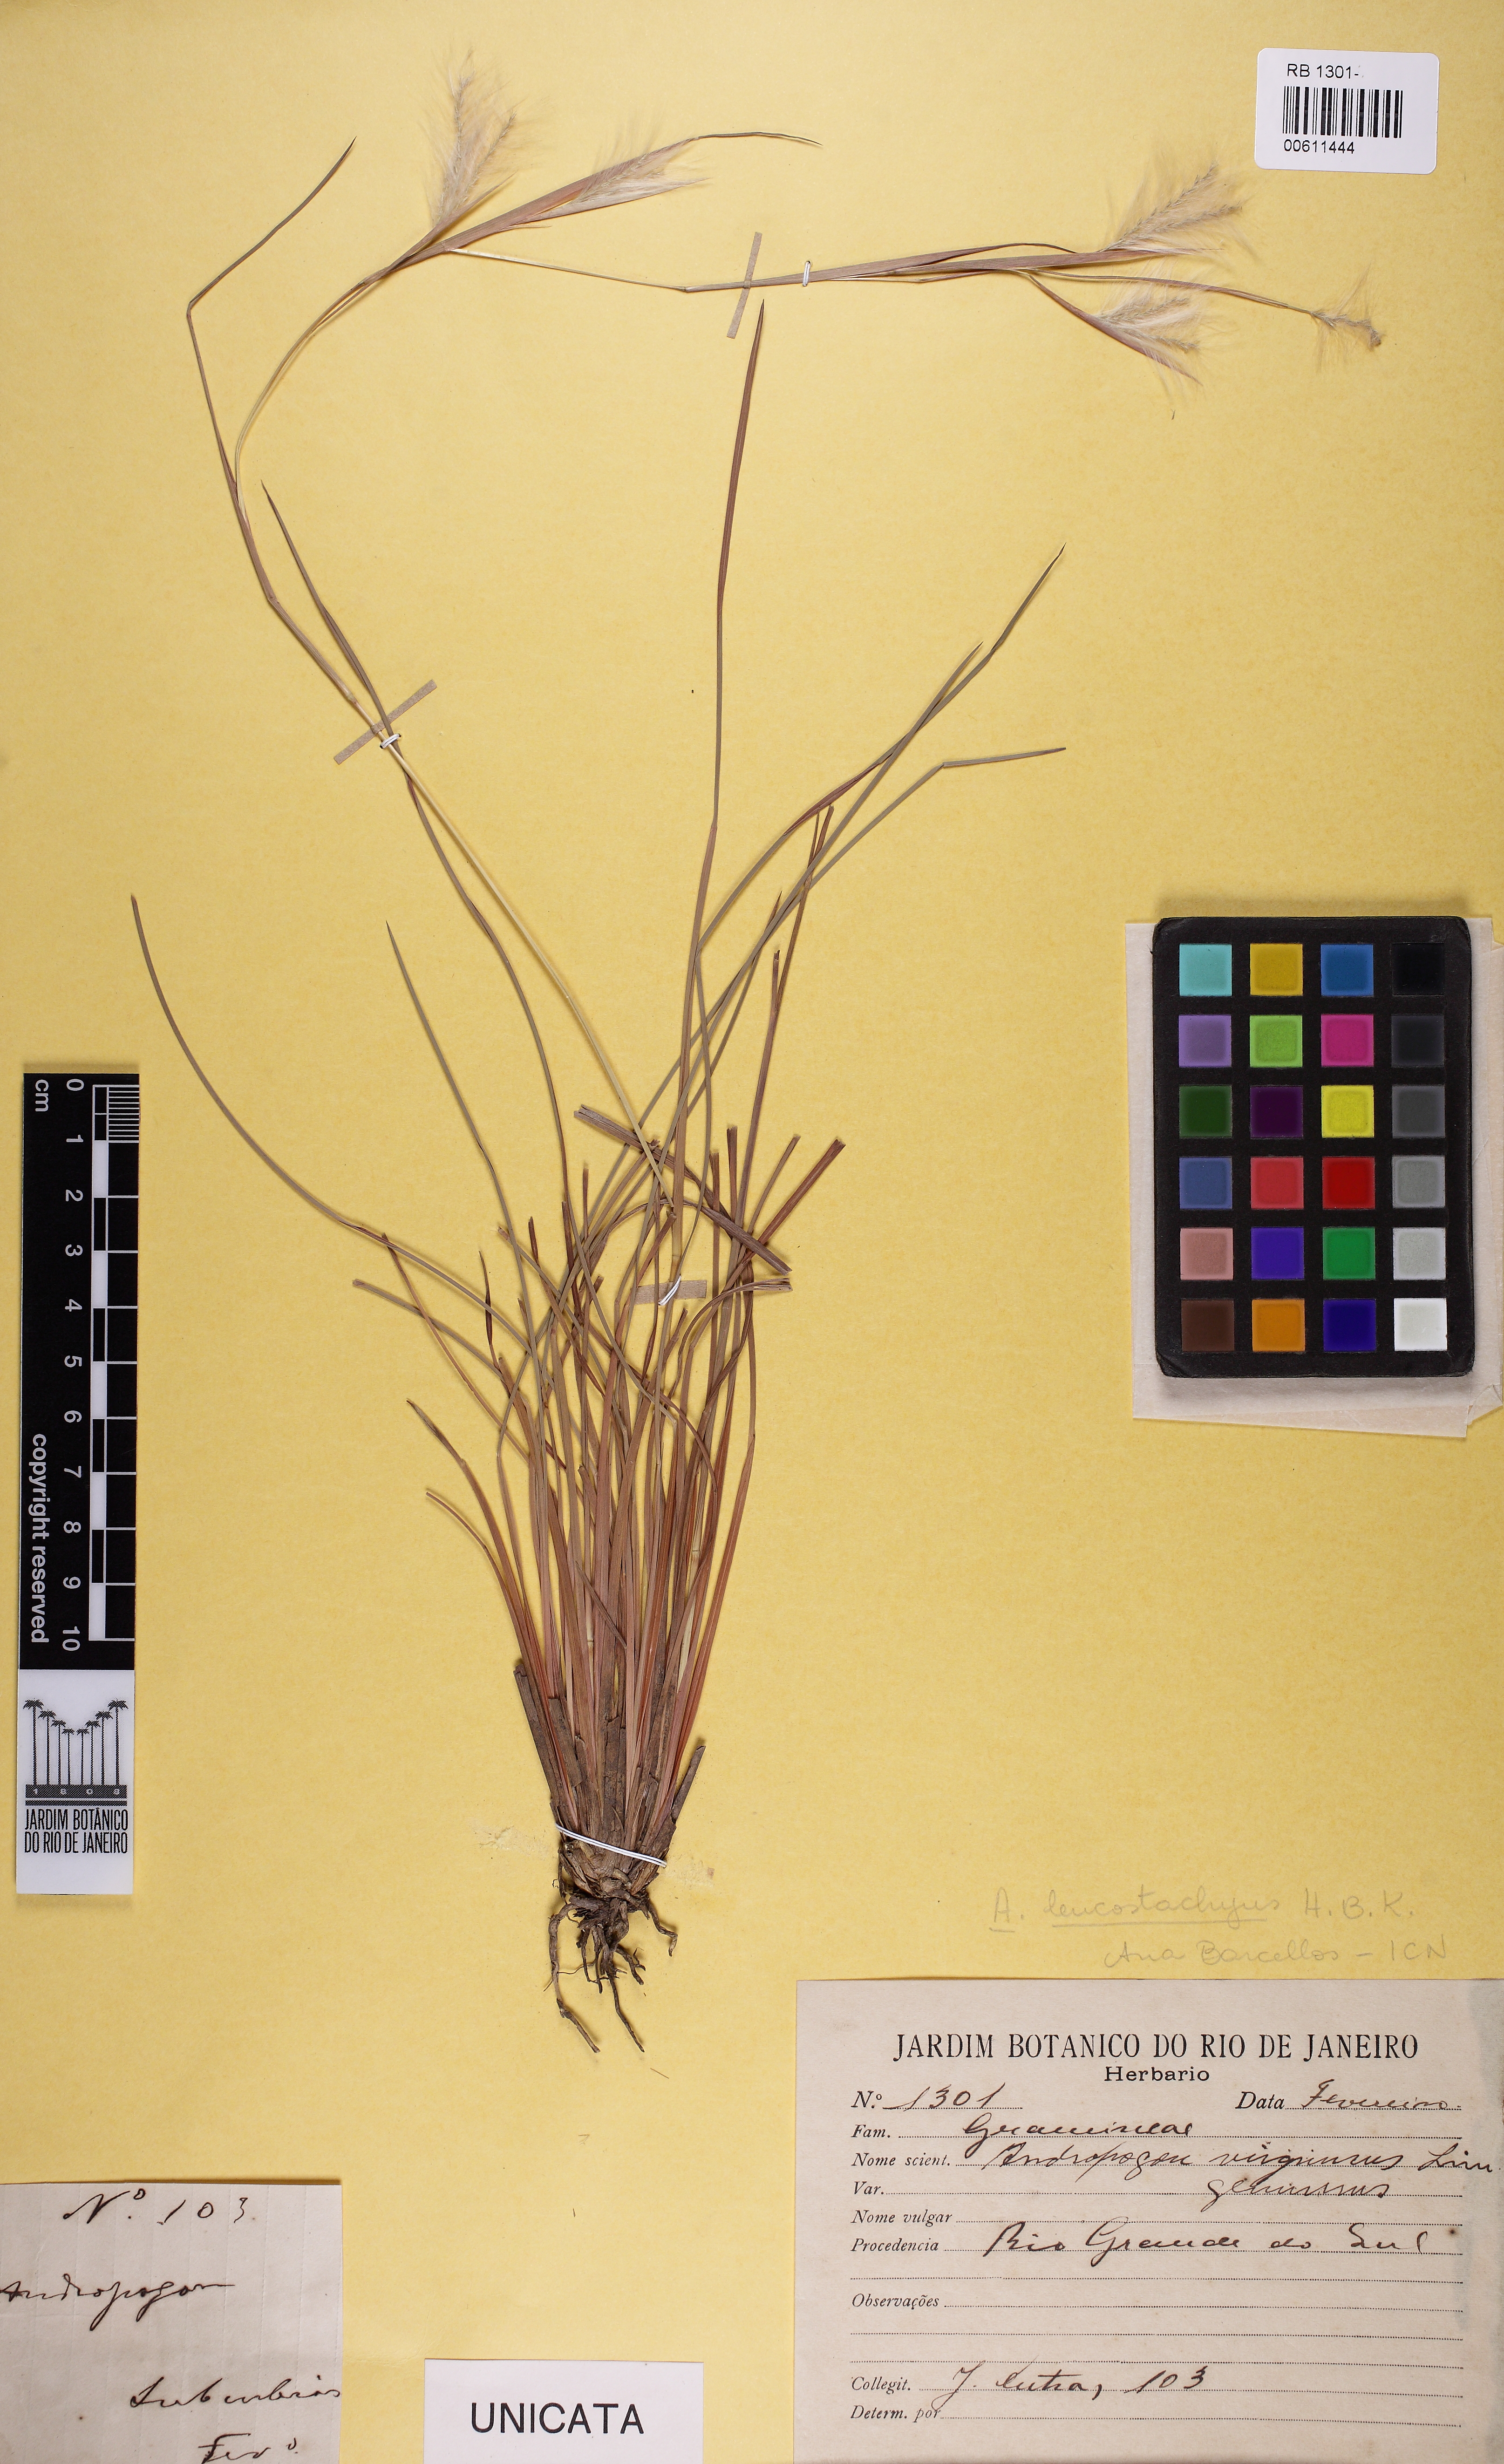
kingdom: Plantae
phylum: Tracheophyta
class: Liliopsida
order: Poales
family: Poaceae
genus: Andropogon
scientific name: Andropogon leucostachyus
